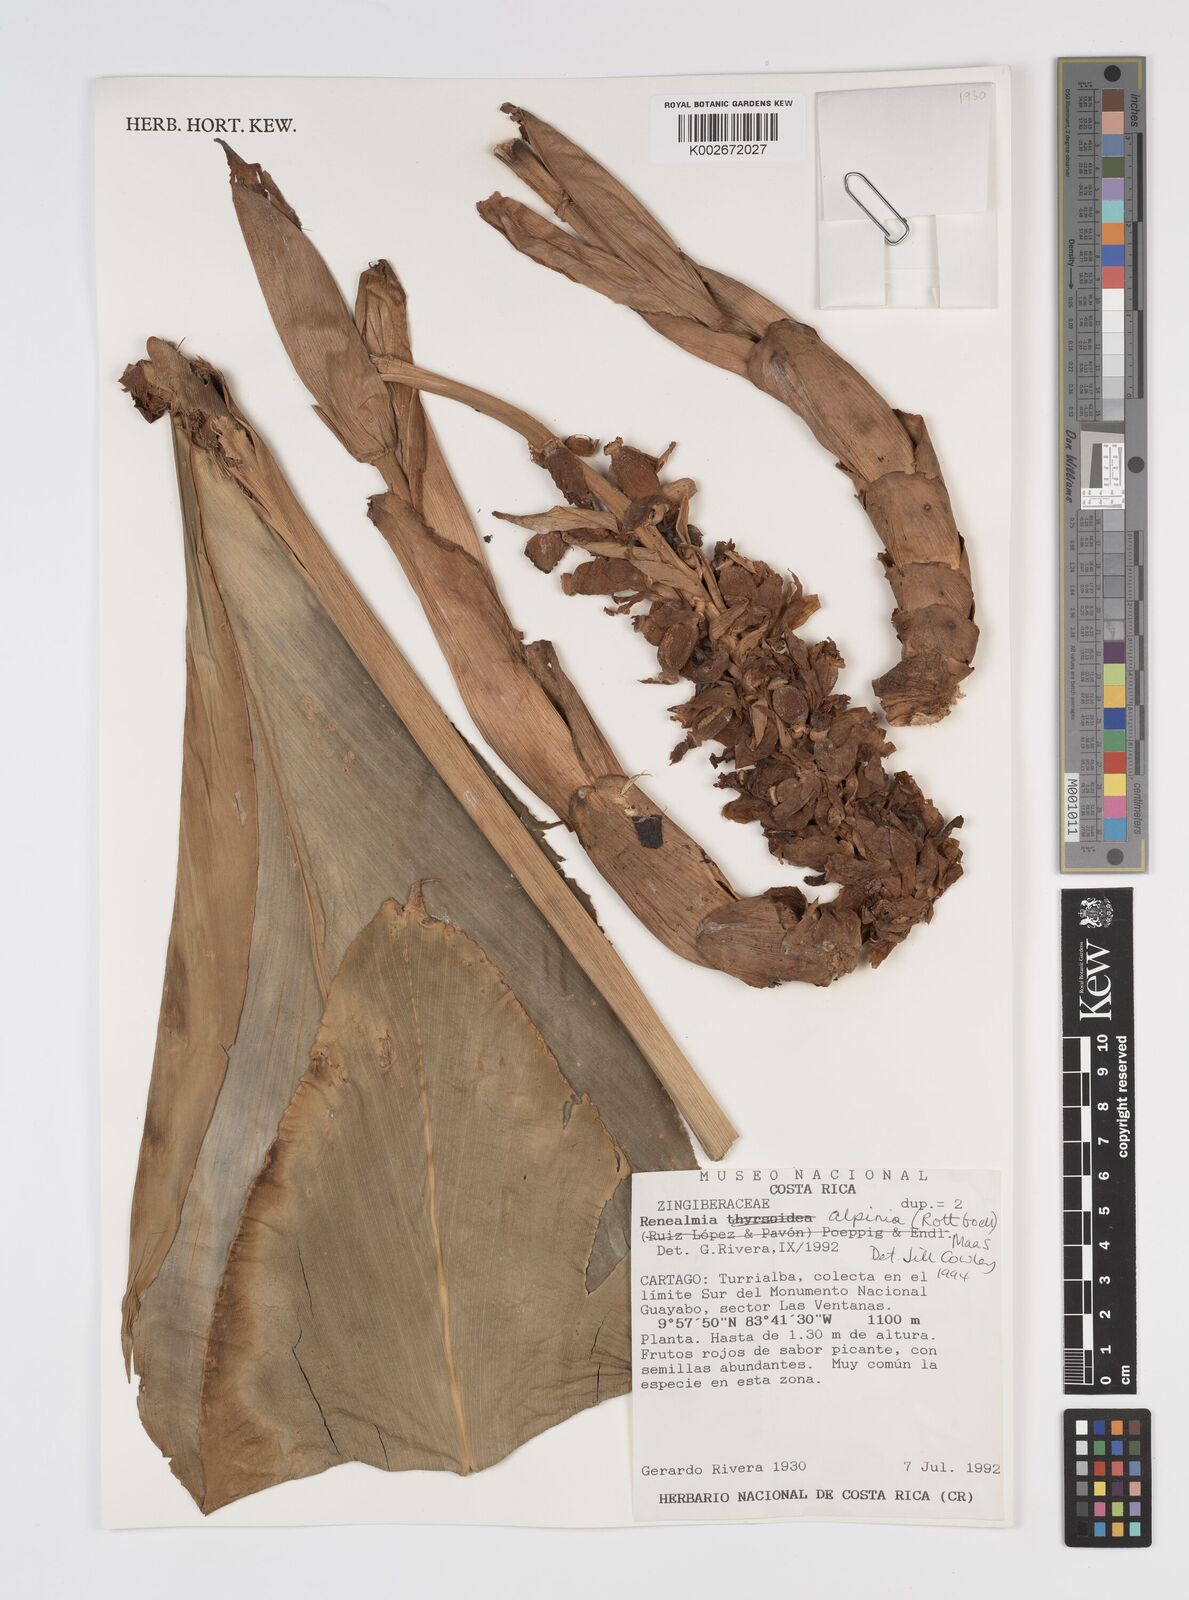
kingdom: Plantae
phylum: Tracheophyta
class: Liliopsida
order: Zingiberales
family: Zingiberaceae
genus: Renealmia
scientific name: Renealmia alpinia
